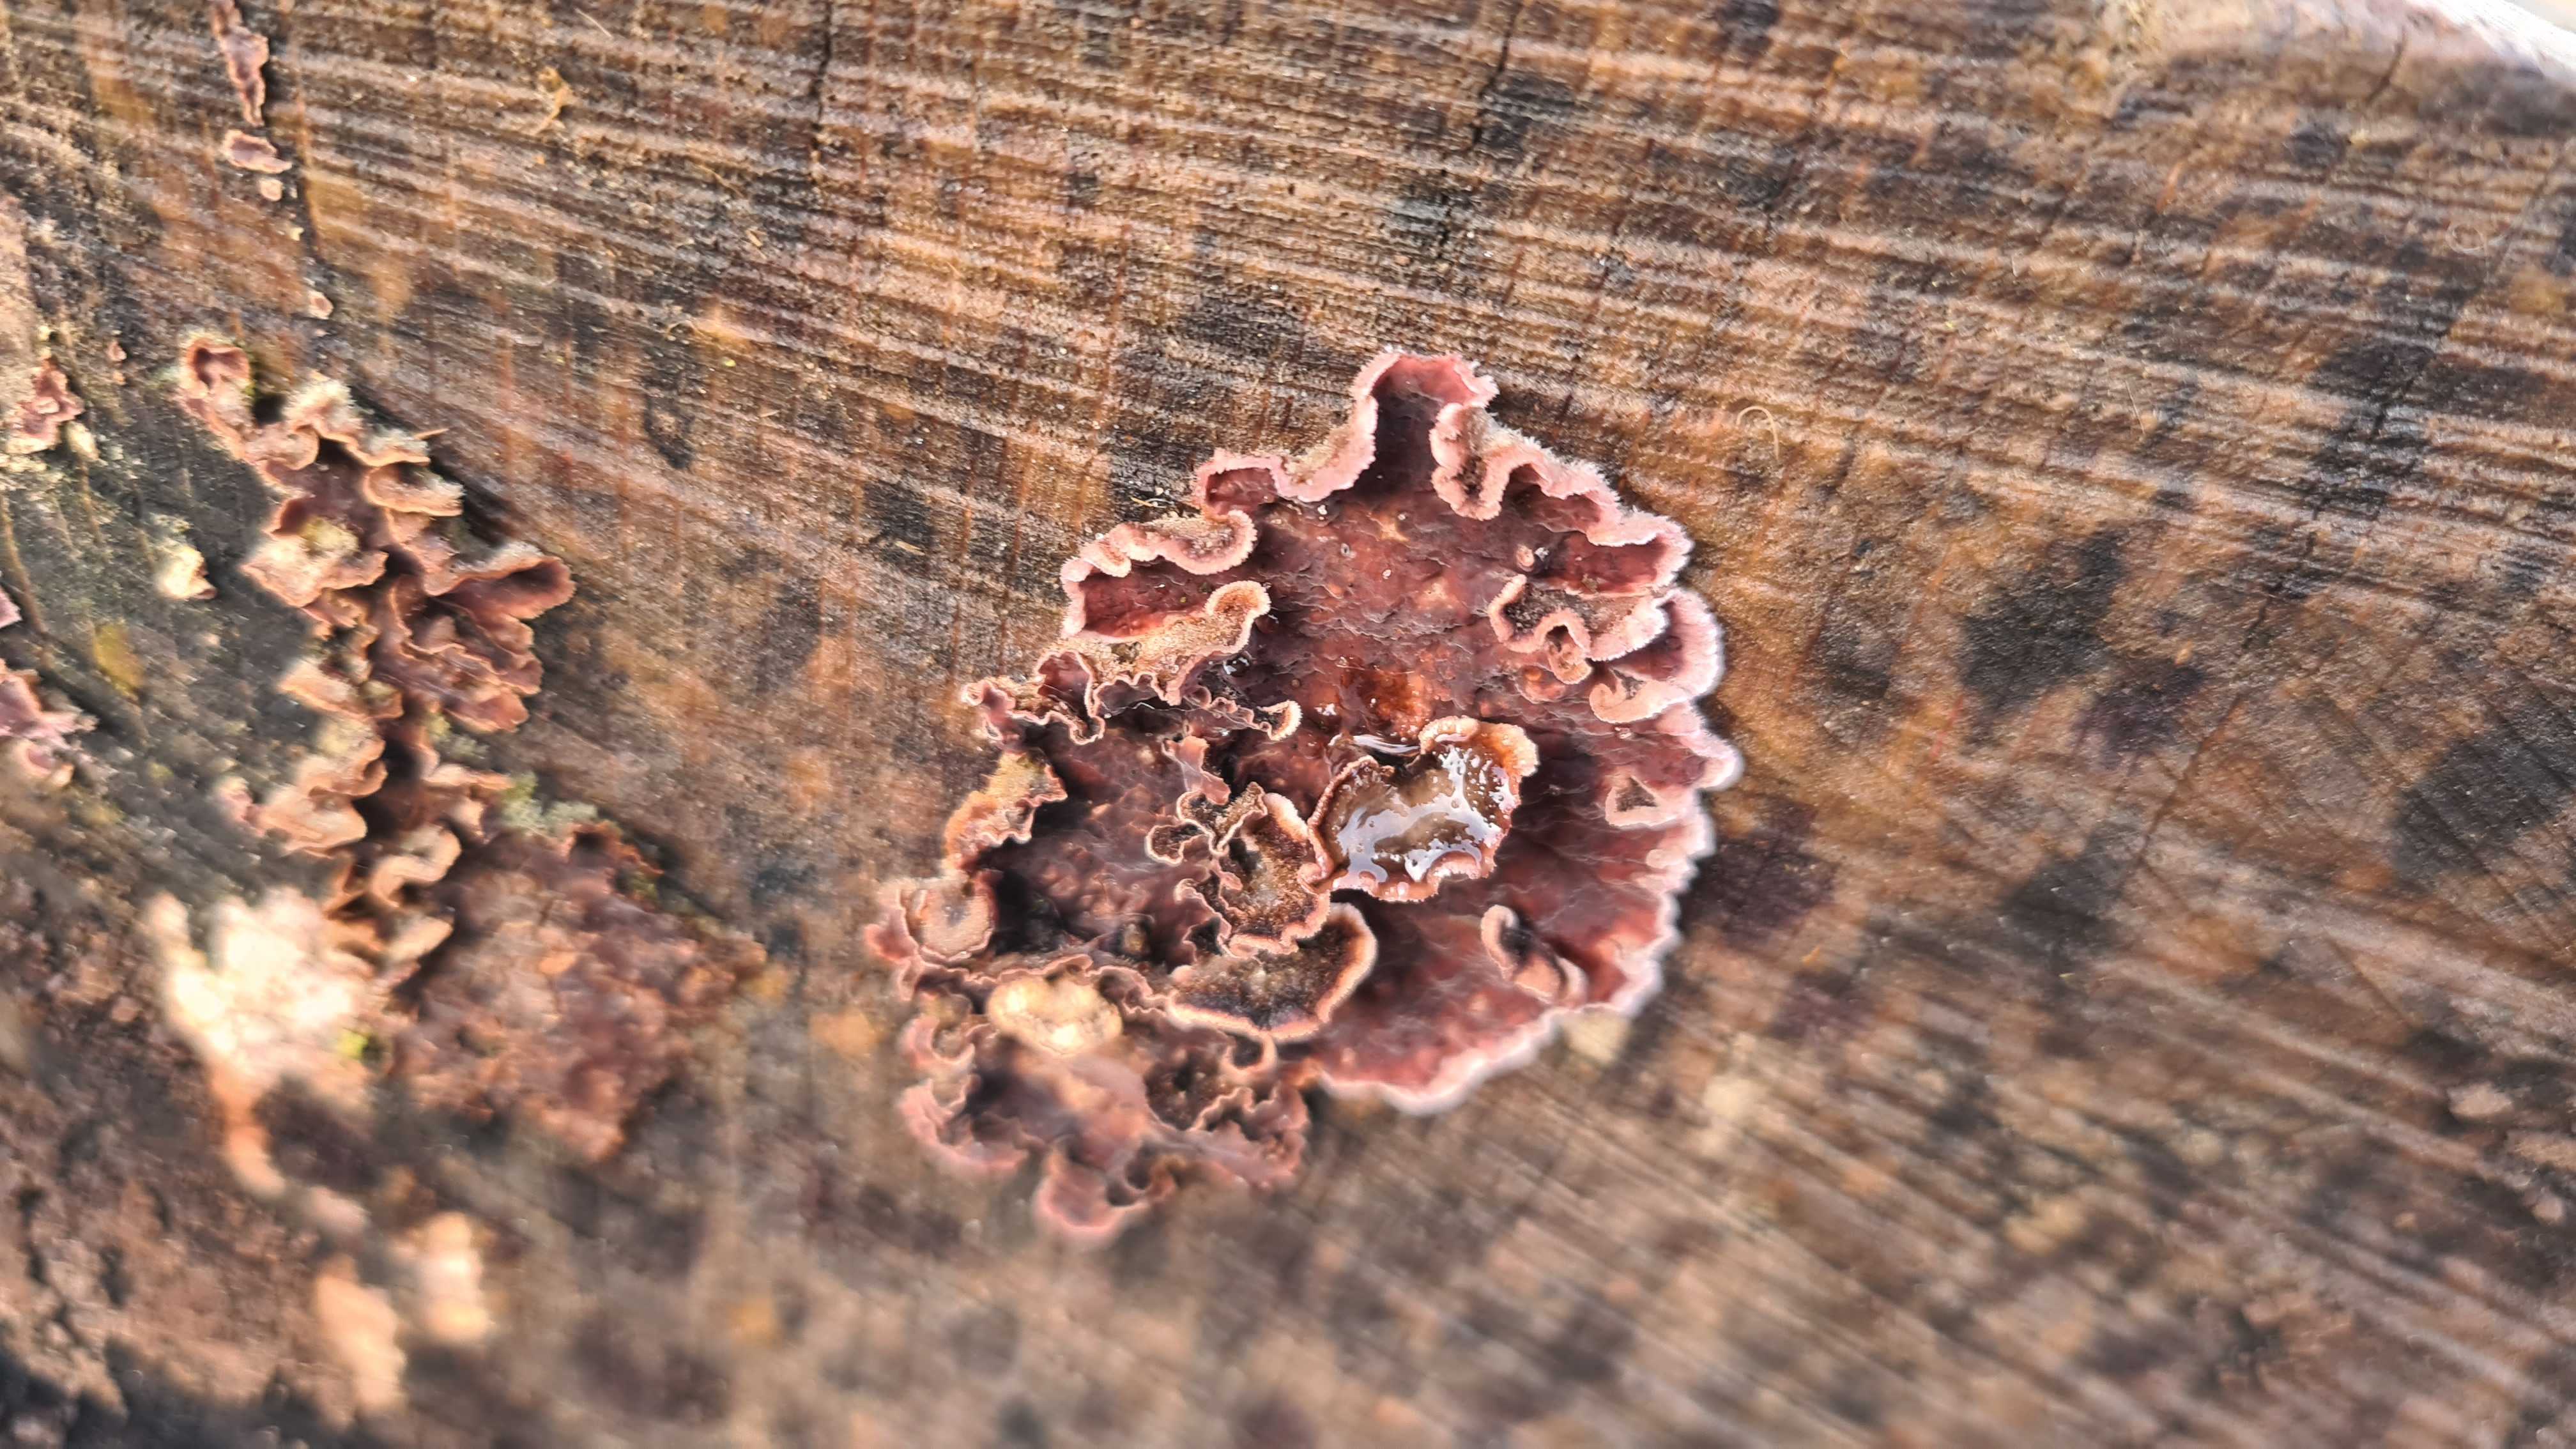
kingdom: Fungi
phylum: Basidiomycota
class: Agaricomycetes
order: Agaricales
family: Cyphellaceae
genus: Chondrostereum
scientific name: Chondrostereum purpureum
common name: purpurlædersvamp
